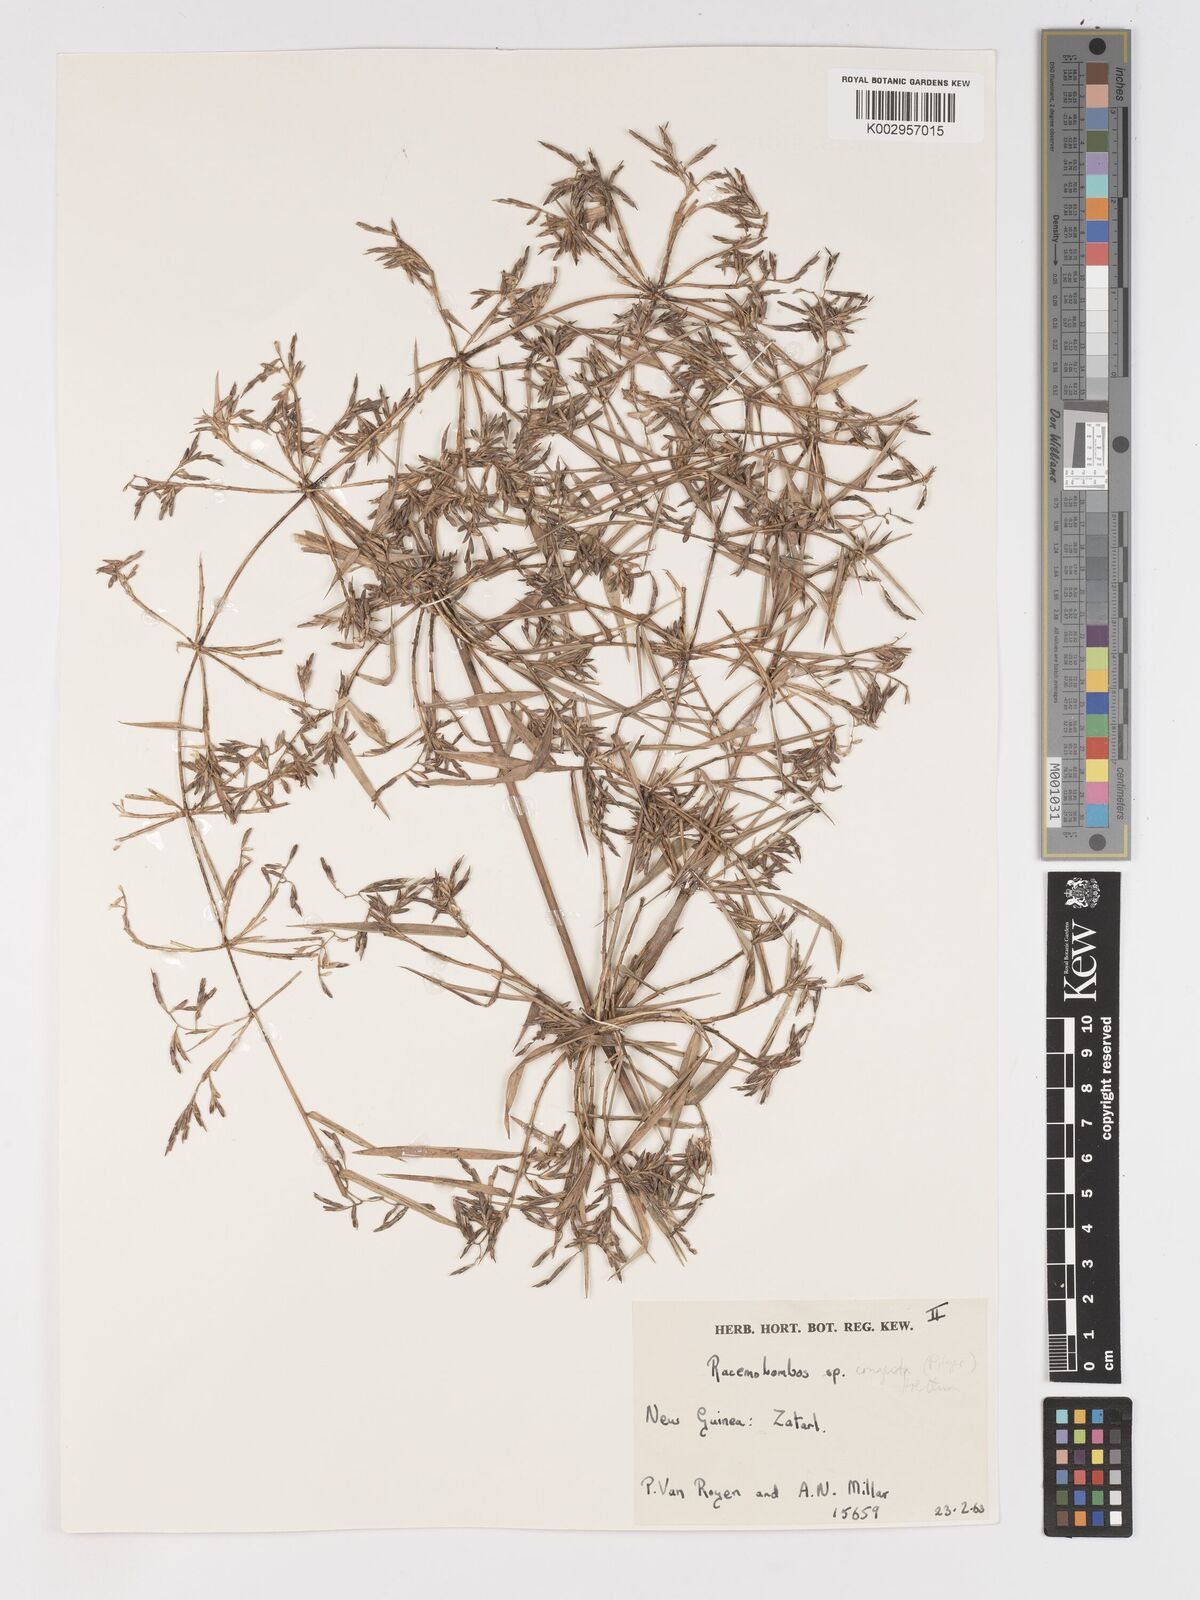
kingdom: Plantae
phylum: Tracheophyta
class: Liliopsida
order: Poales
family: Poaceae
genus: Racemobambos
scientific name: Racemobambos congesta
